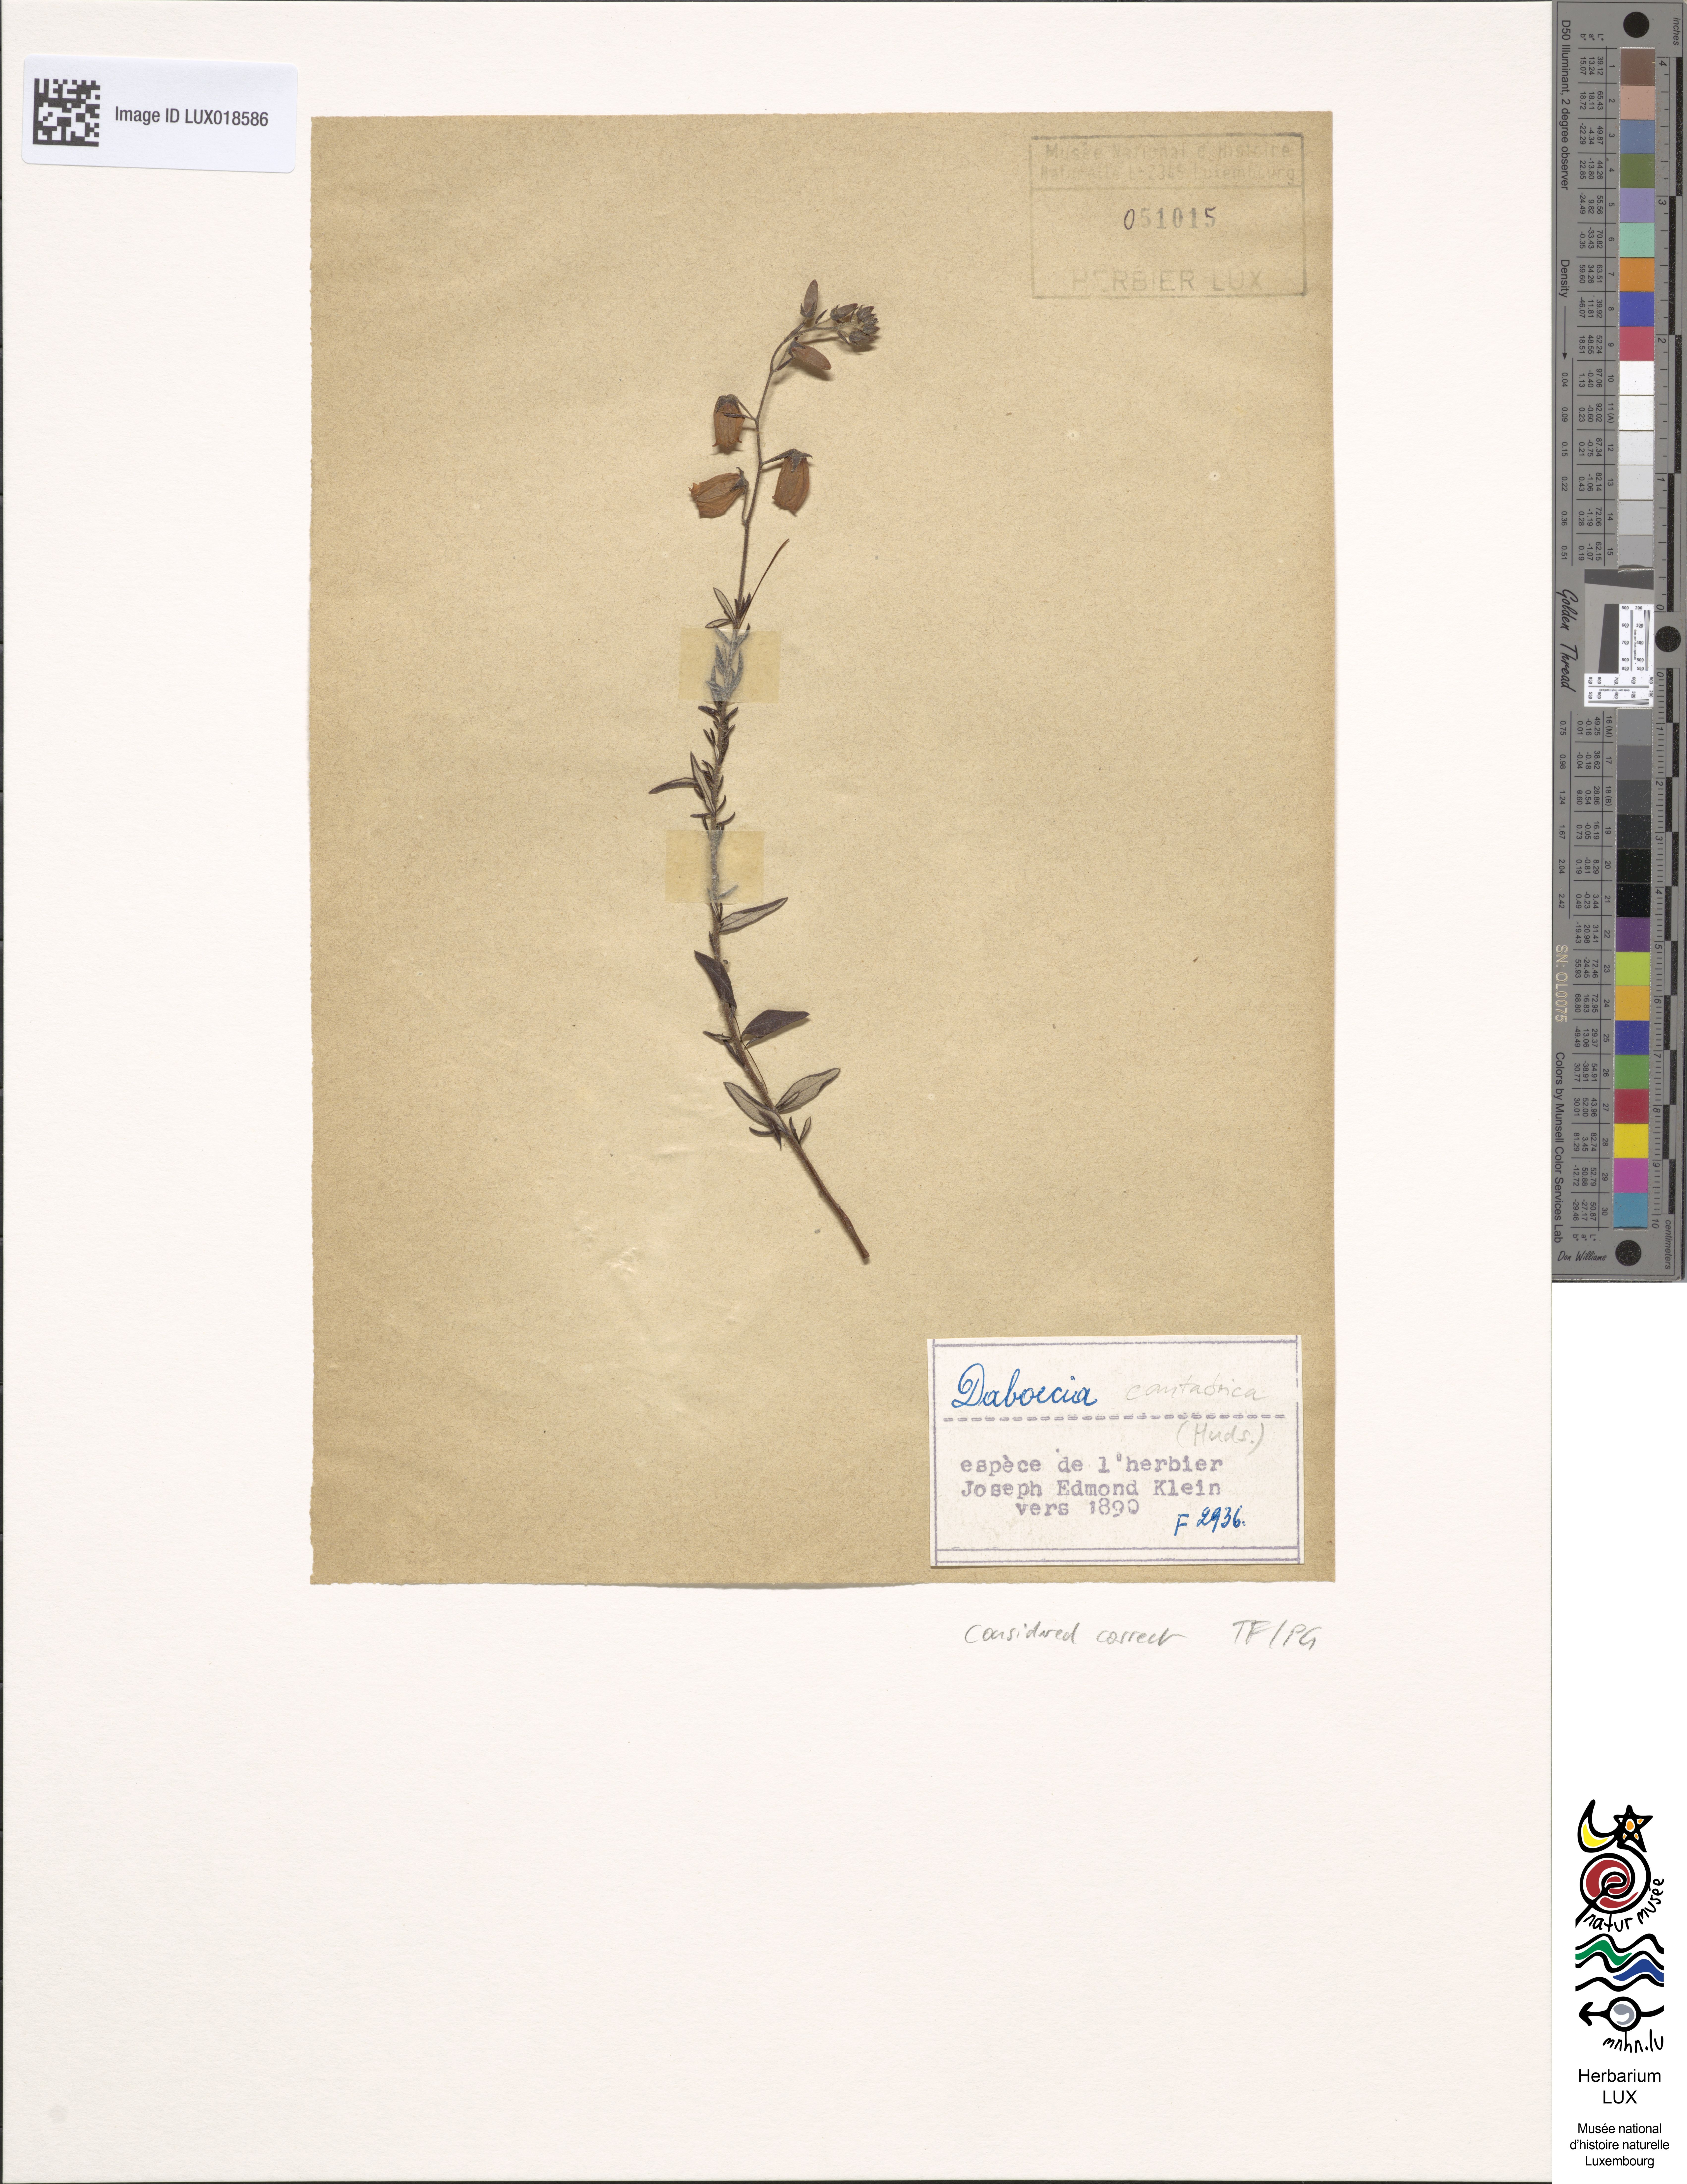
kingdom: Plantae
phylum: Tracheophyta
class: Magnoliopsida
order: Ericales
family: Ericaceae
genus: Daboecia
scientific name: Daboecia cantabrica
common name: St. dabeoc's-heath
